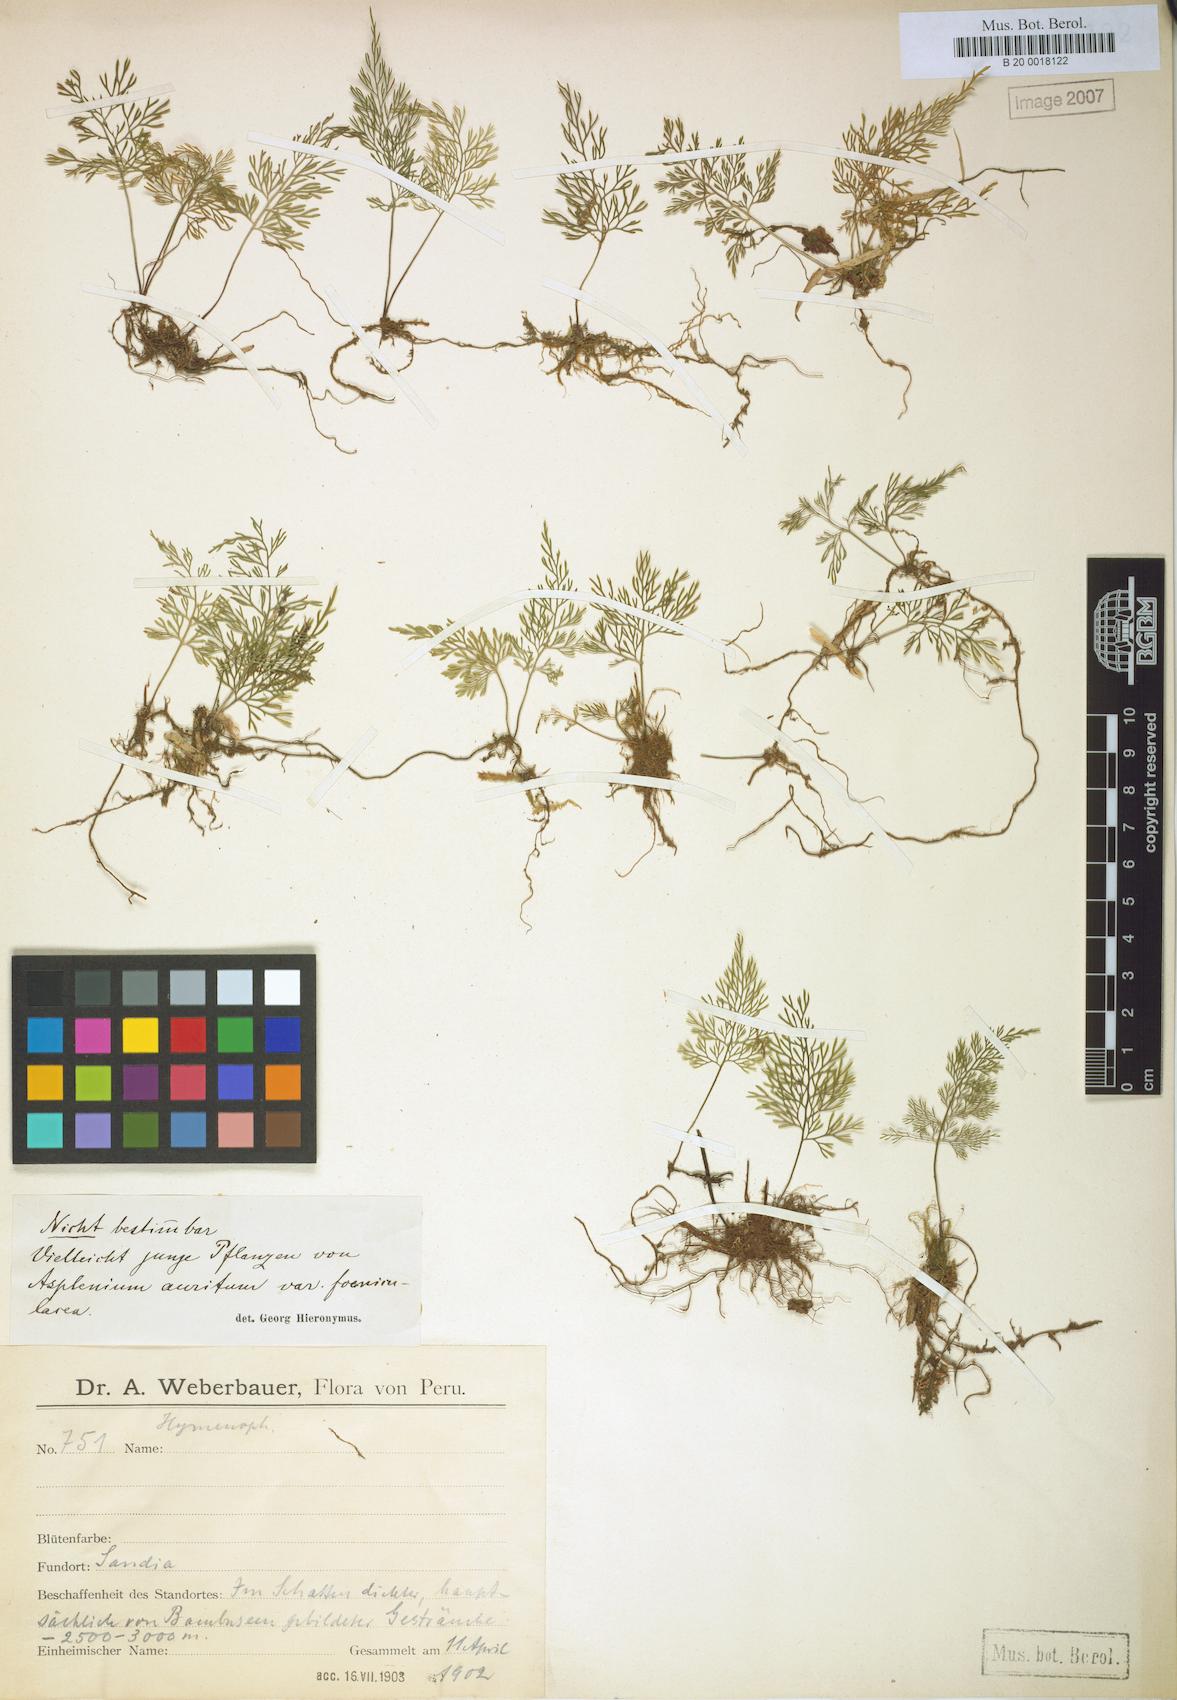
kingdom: Plantae
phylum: Tracheophyta
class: Polypodiopsida
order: Polypodiales
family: Aspleniaceae
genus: Asplenium
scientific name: Asplenium millefolium
